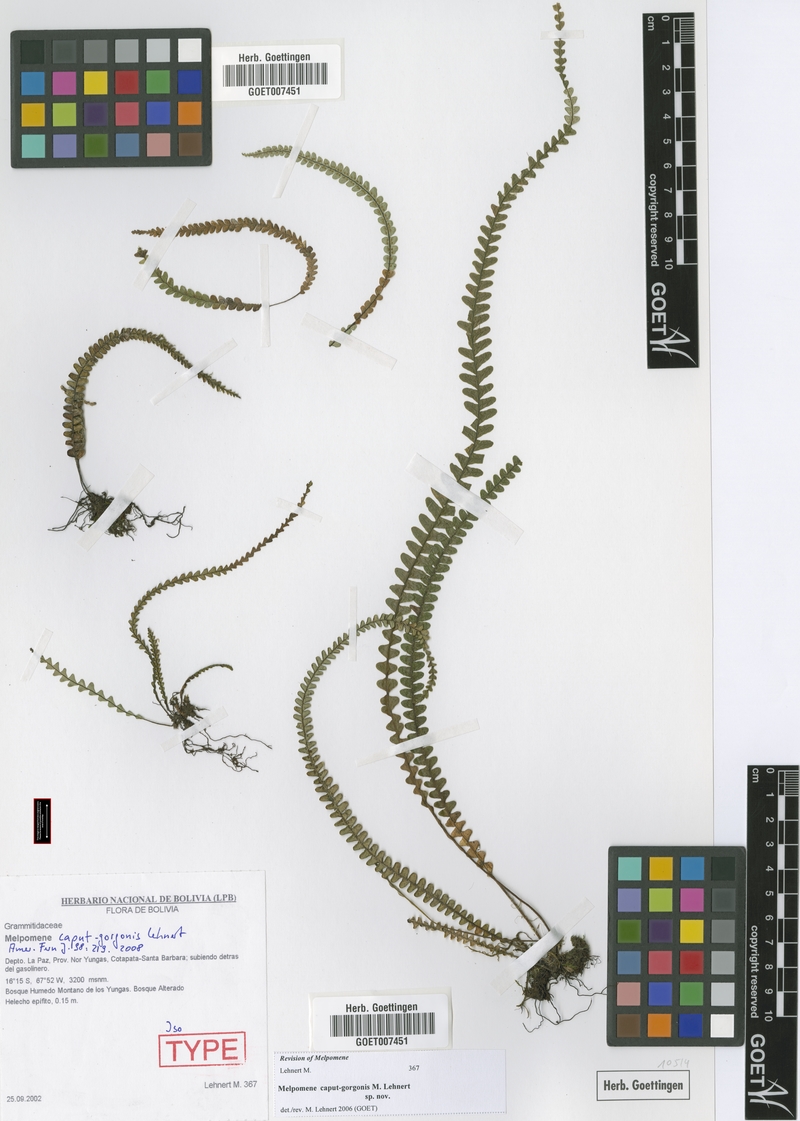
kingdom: Plantae
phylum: Tracheophyta
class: Polypodiopsida
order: Polypodiales
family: Polypodiaceae
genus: Melpomene
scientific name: Melpomene caput-gorgonis
